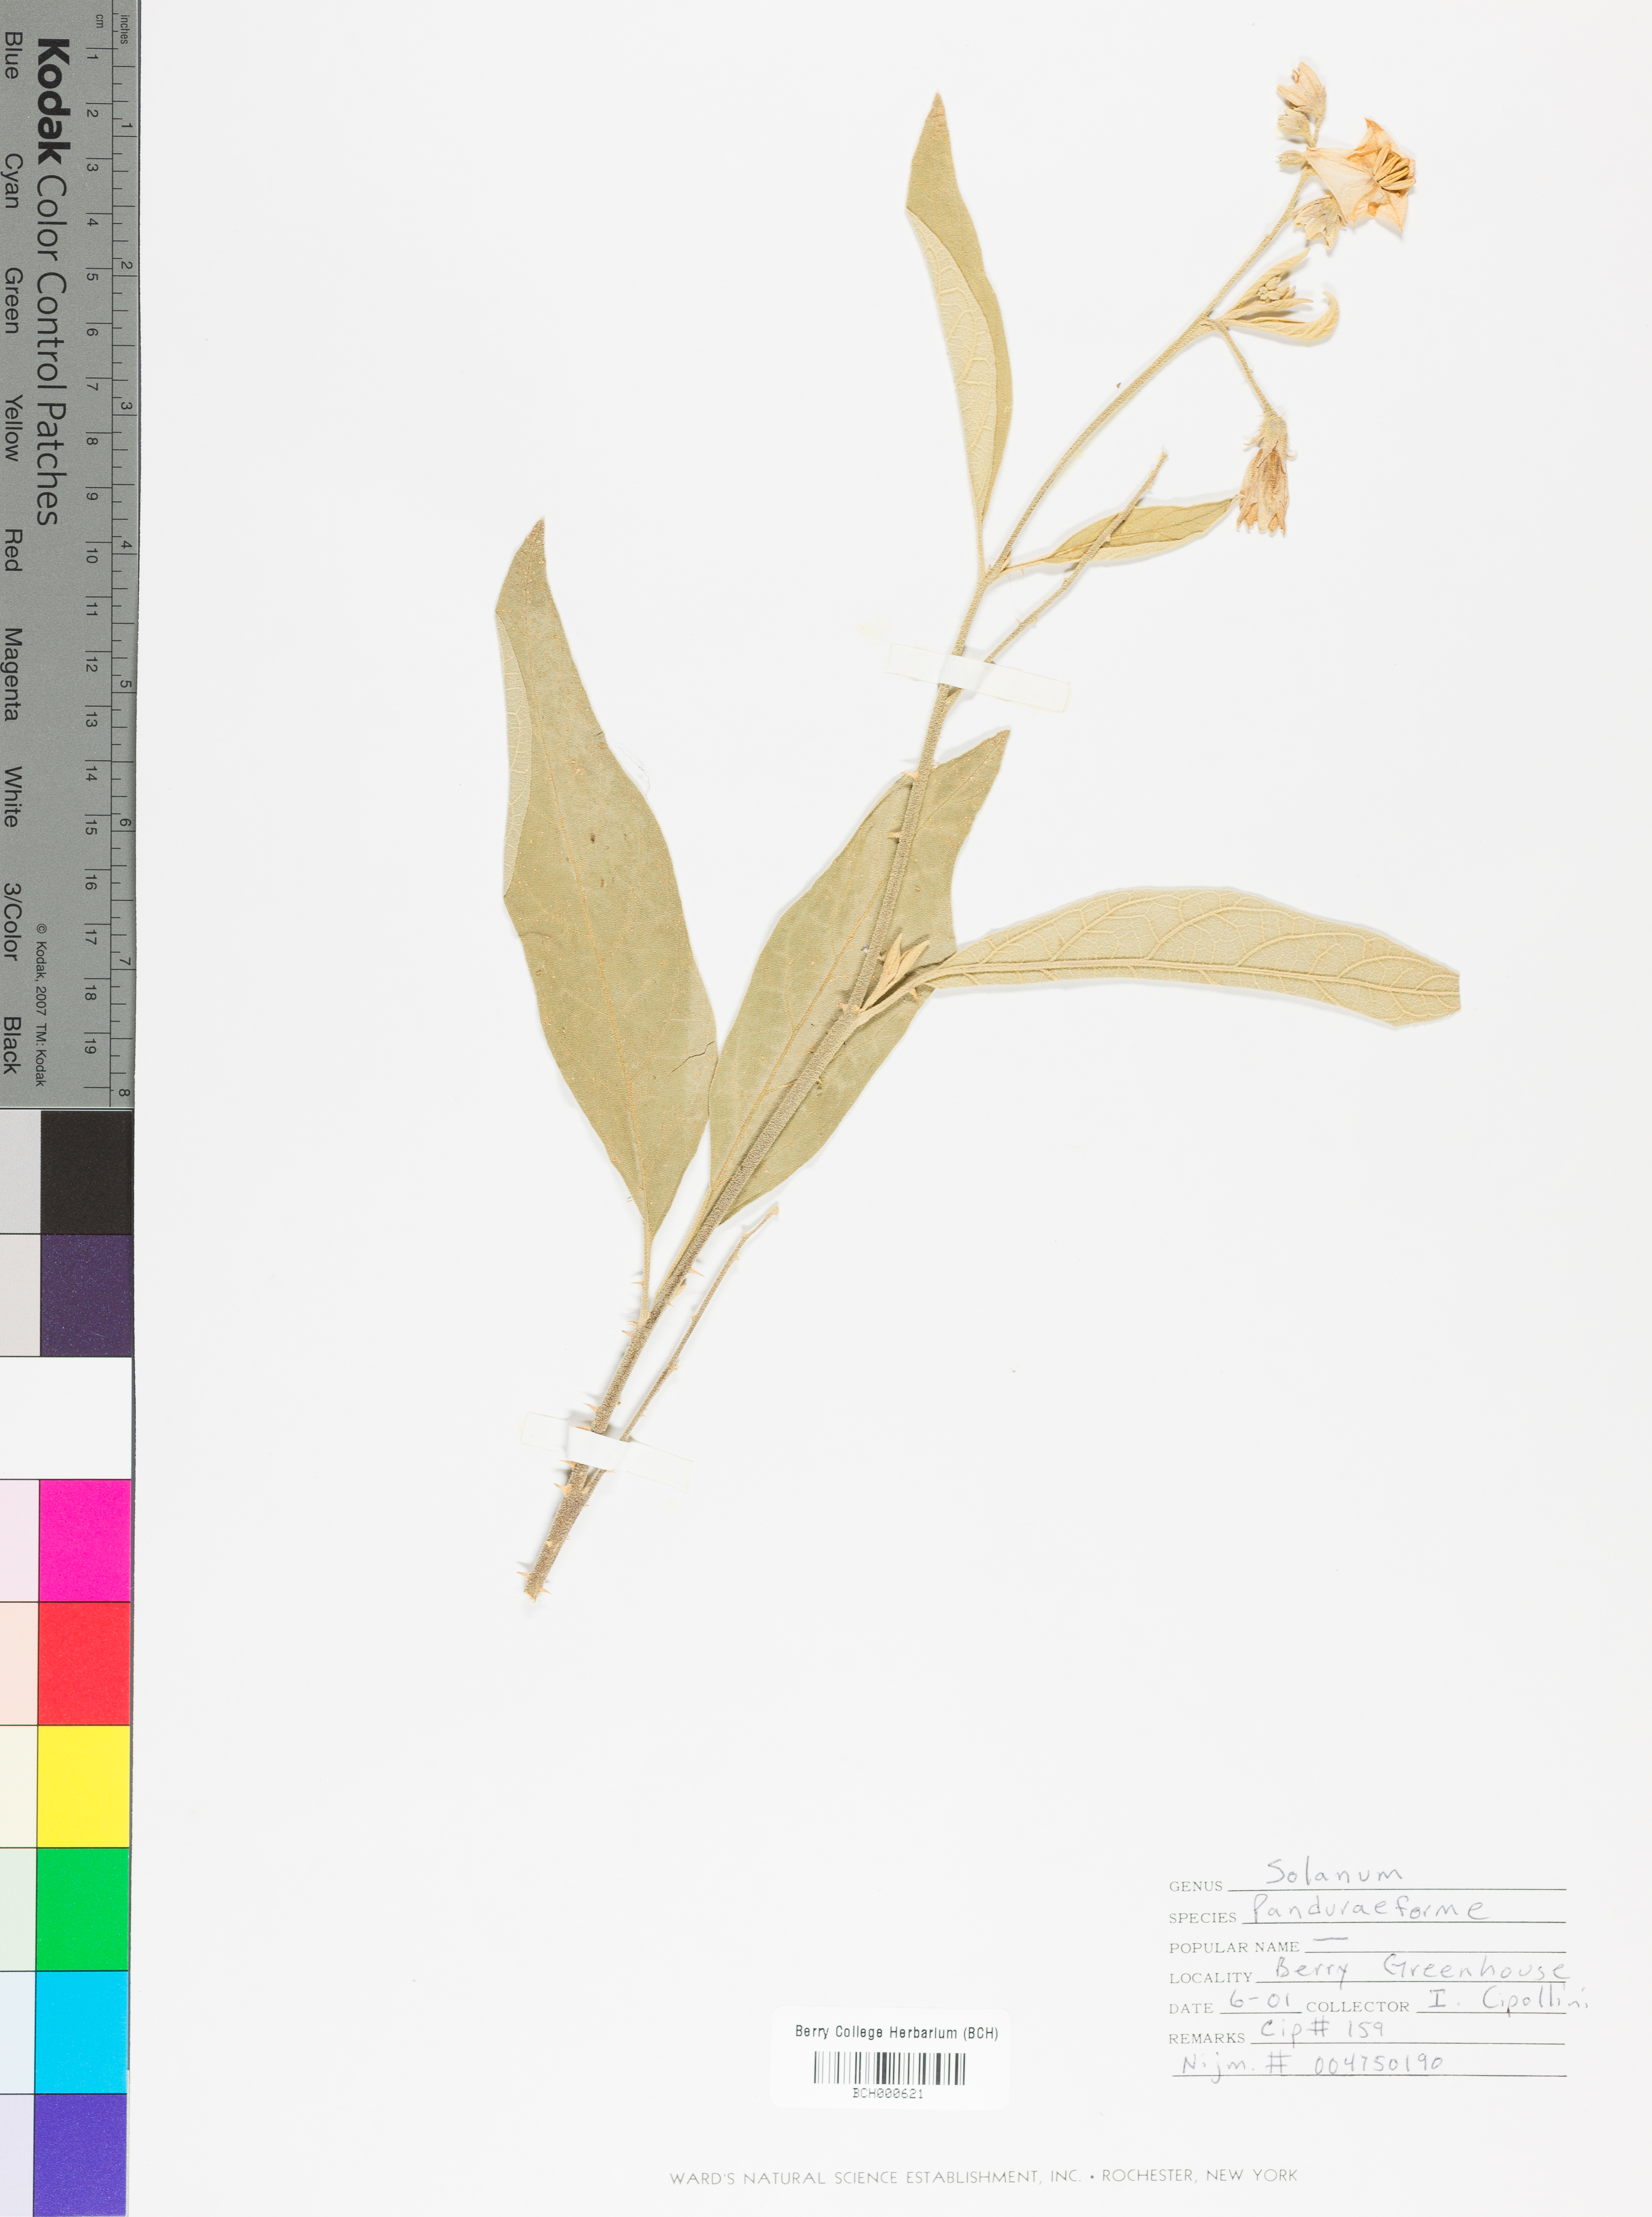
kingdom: Plantae
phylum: Tracheophyta
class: Magnoliopsida
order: Solanales
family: Solanaceae
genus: Solanum
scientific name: Solanum panduraeforme
